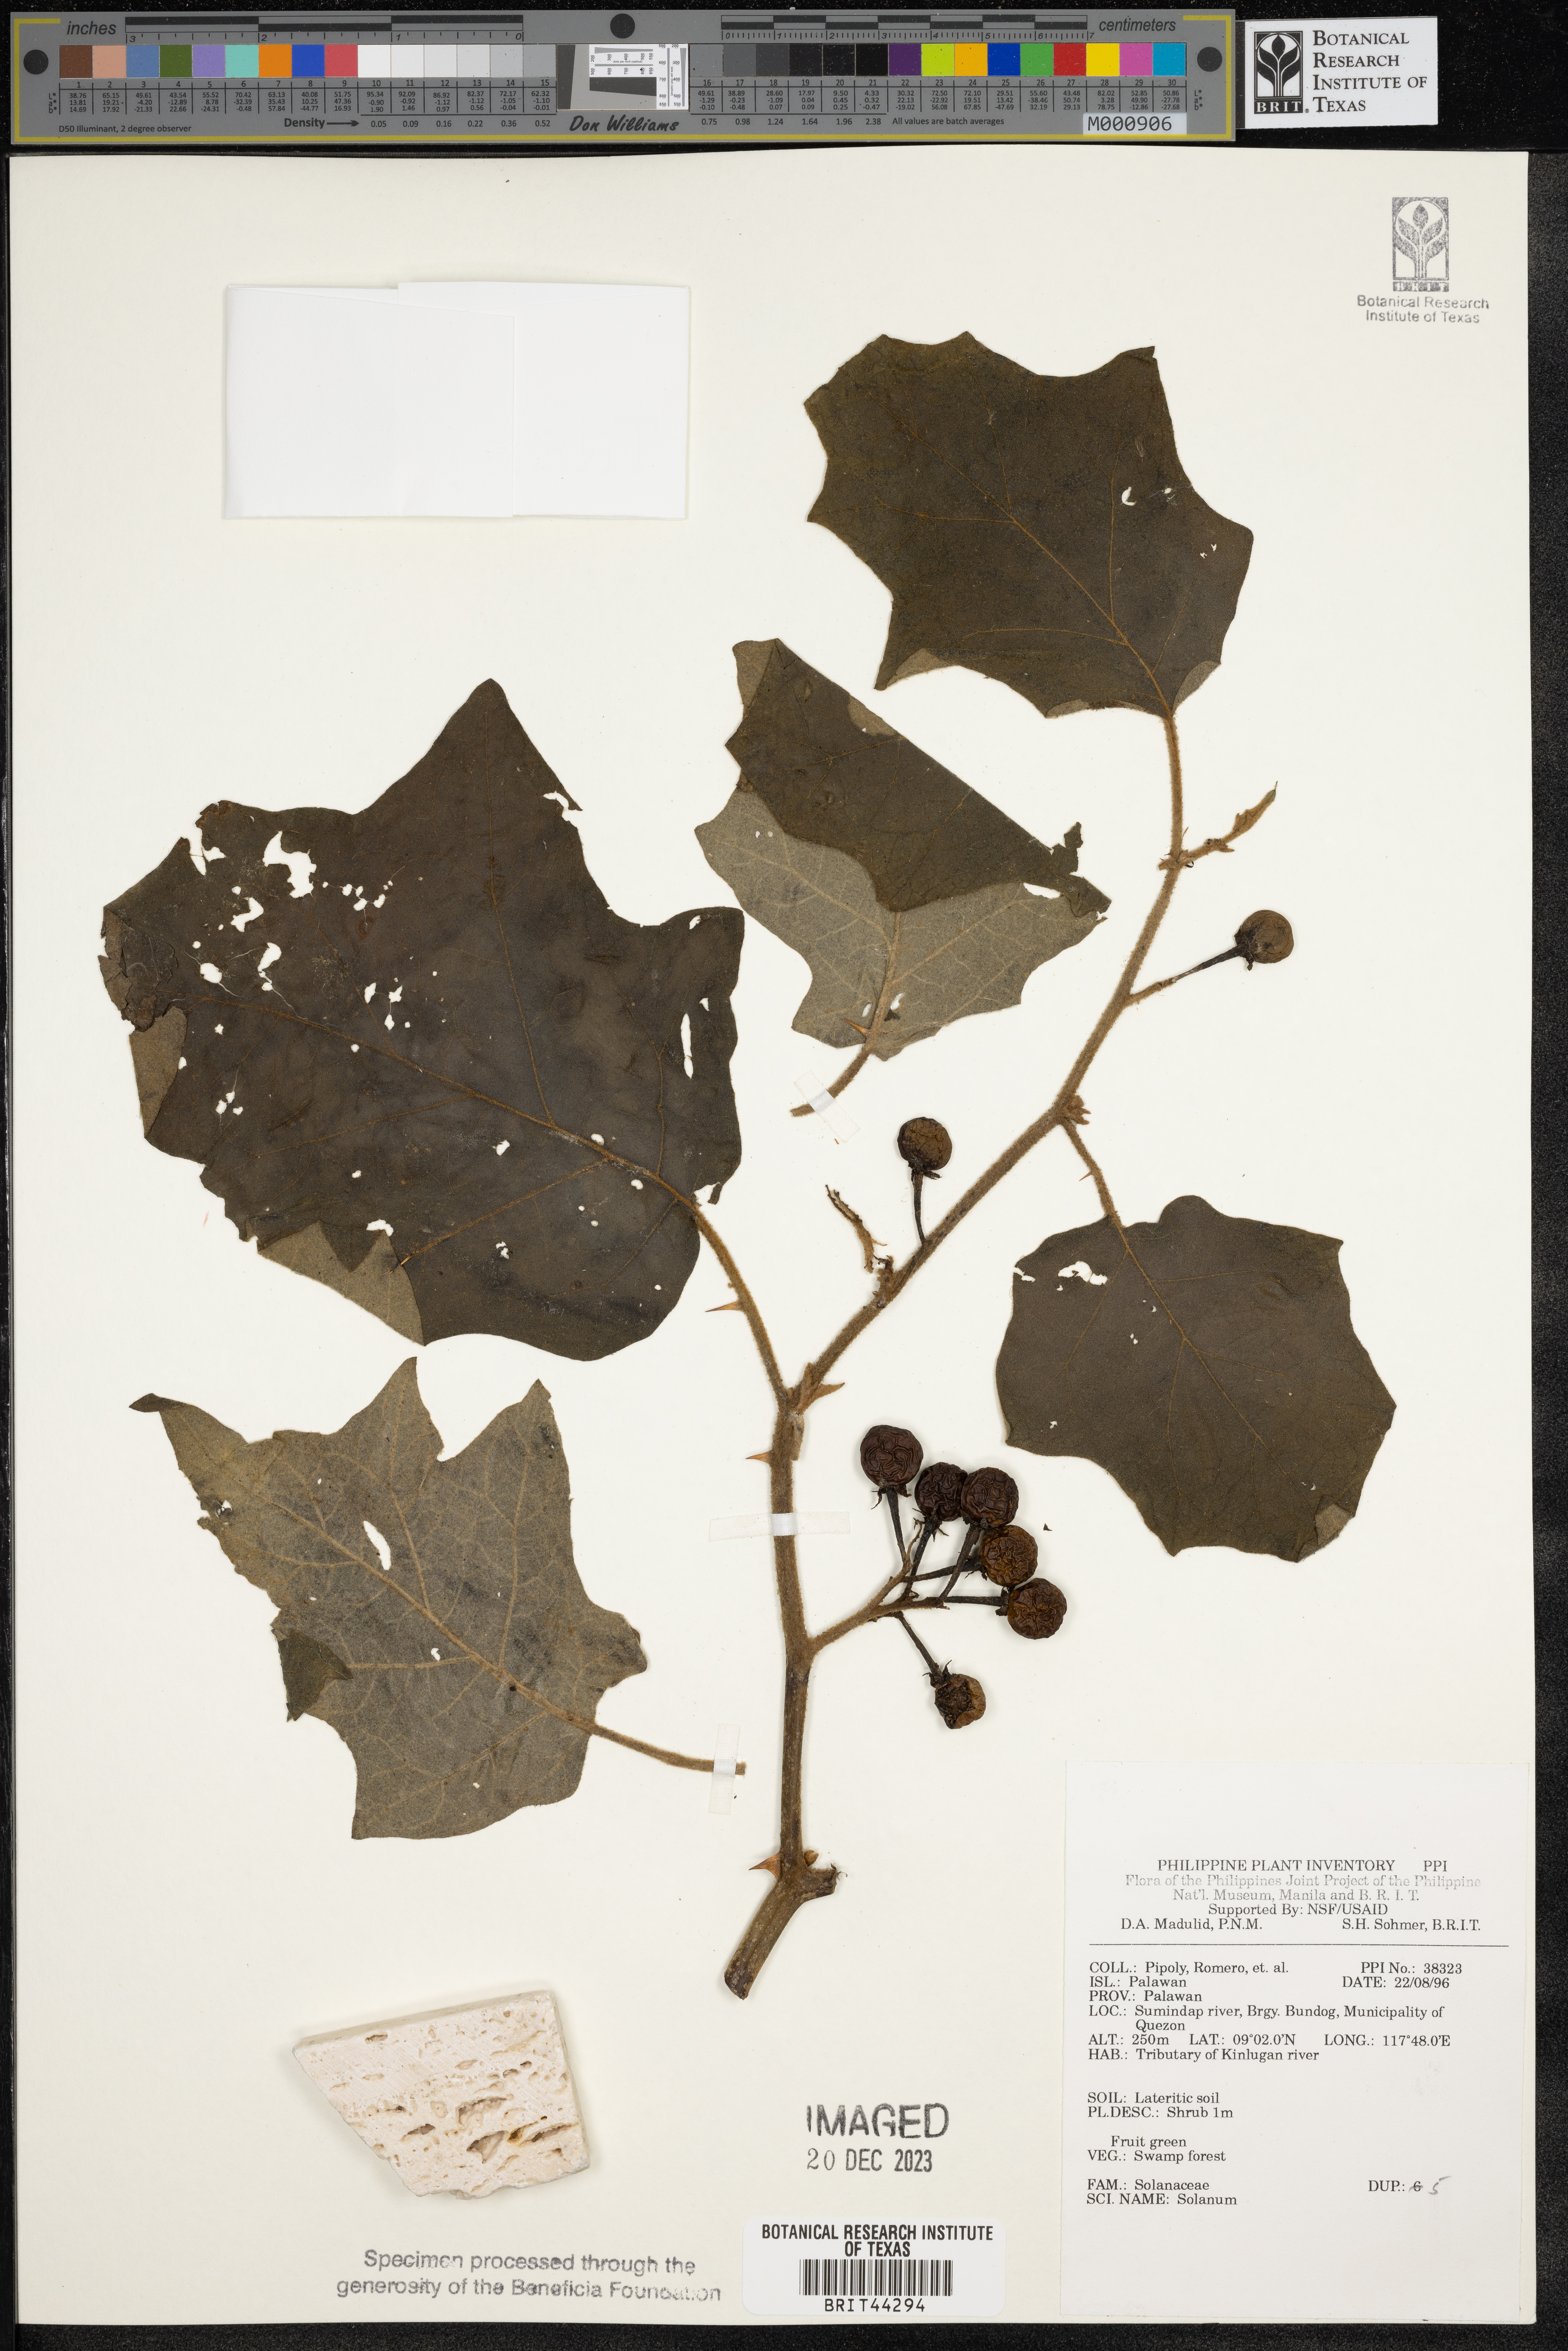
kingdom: Plantae
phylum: Tracheophyta
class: Magnoliopsida
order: Solanales
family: Solanaceae
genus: Solanum
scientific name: Solanum
